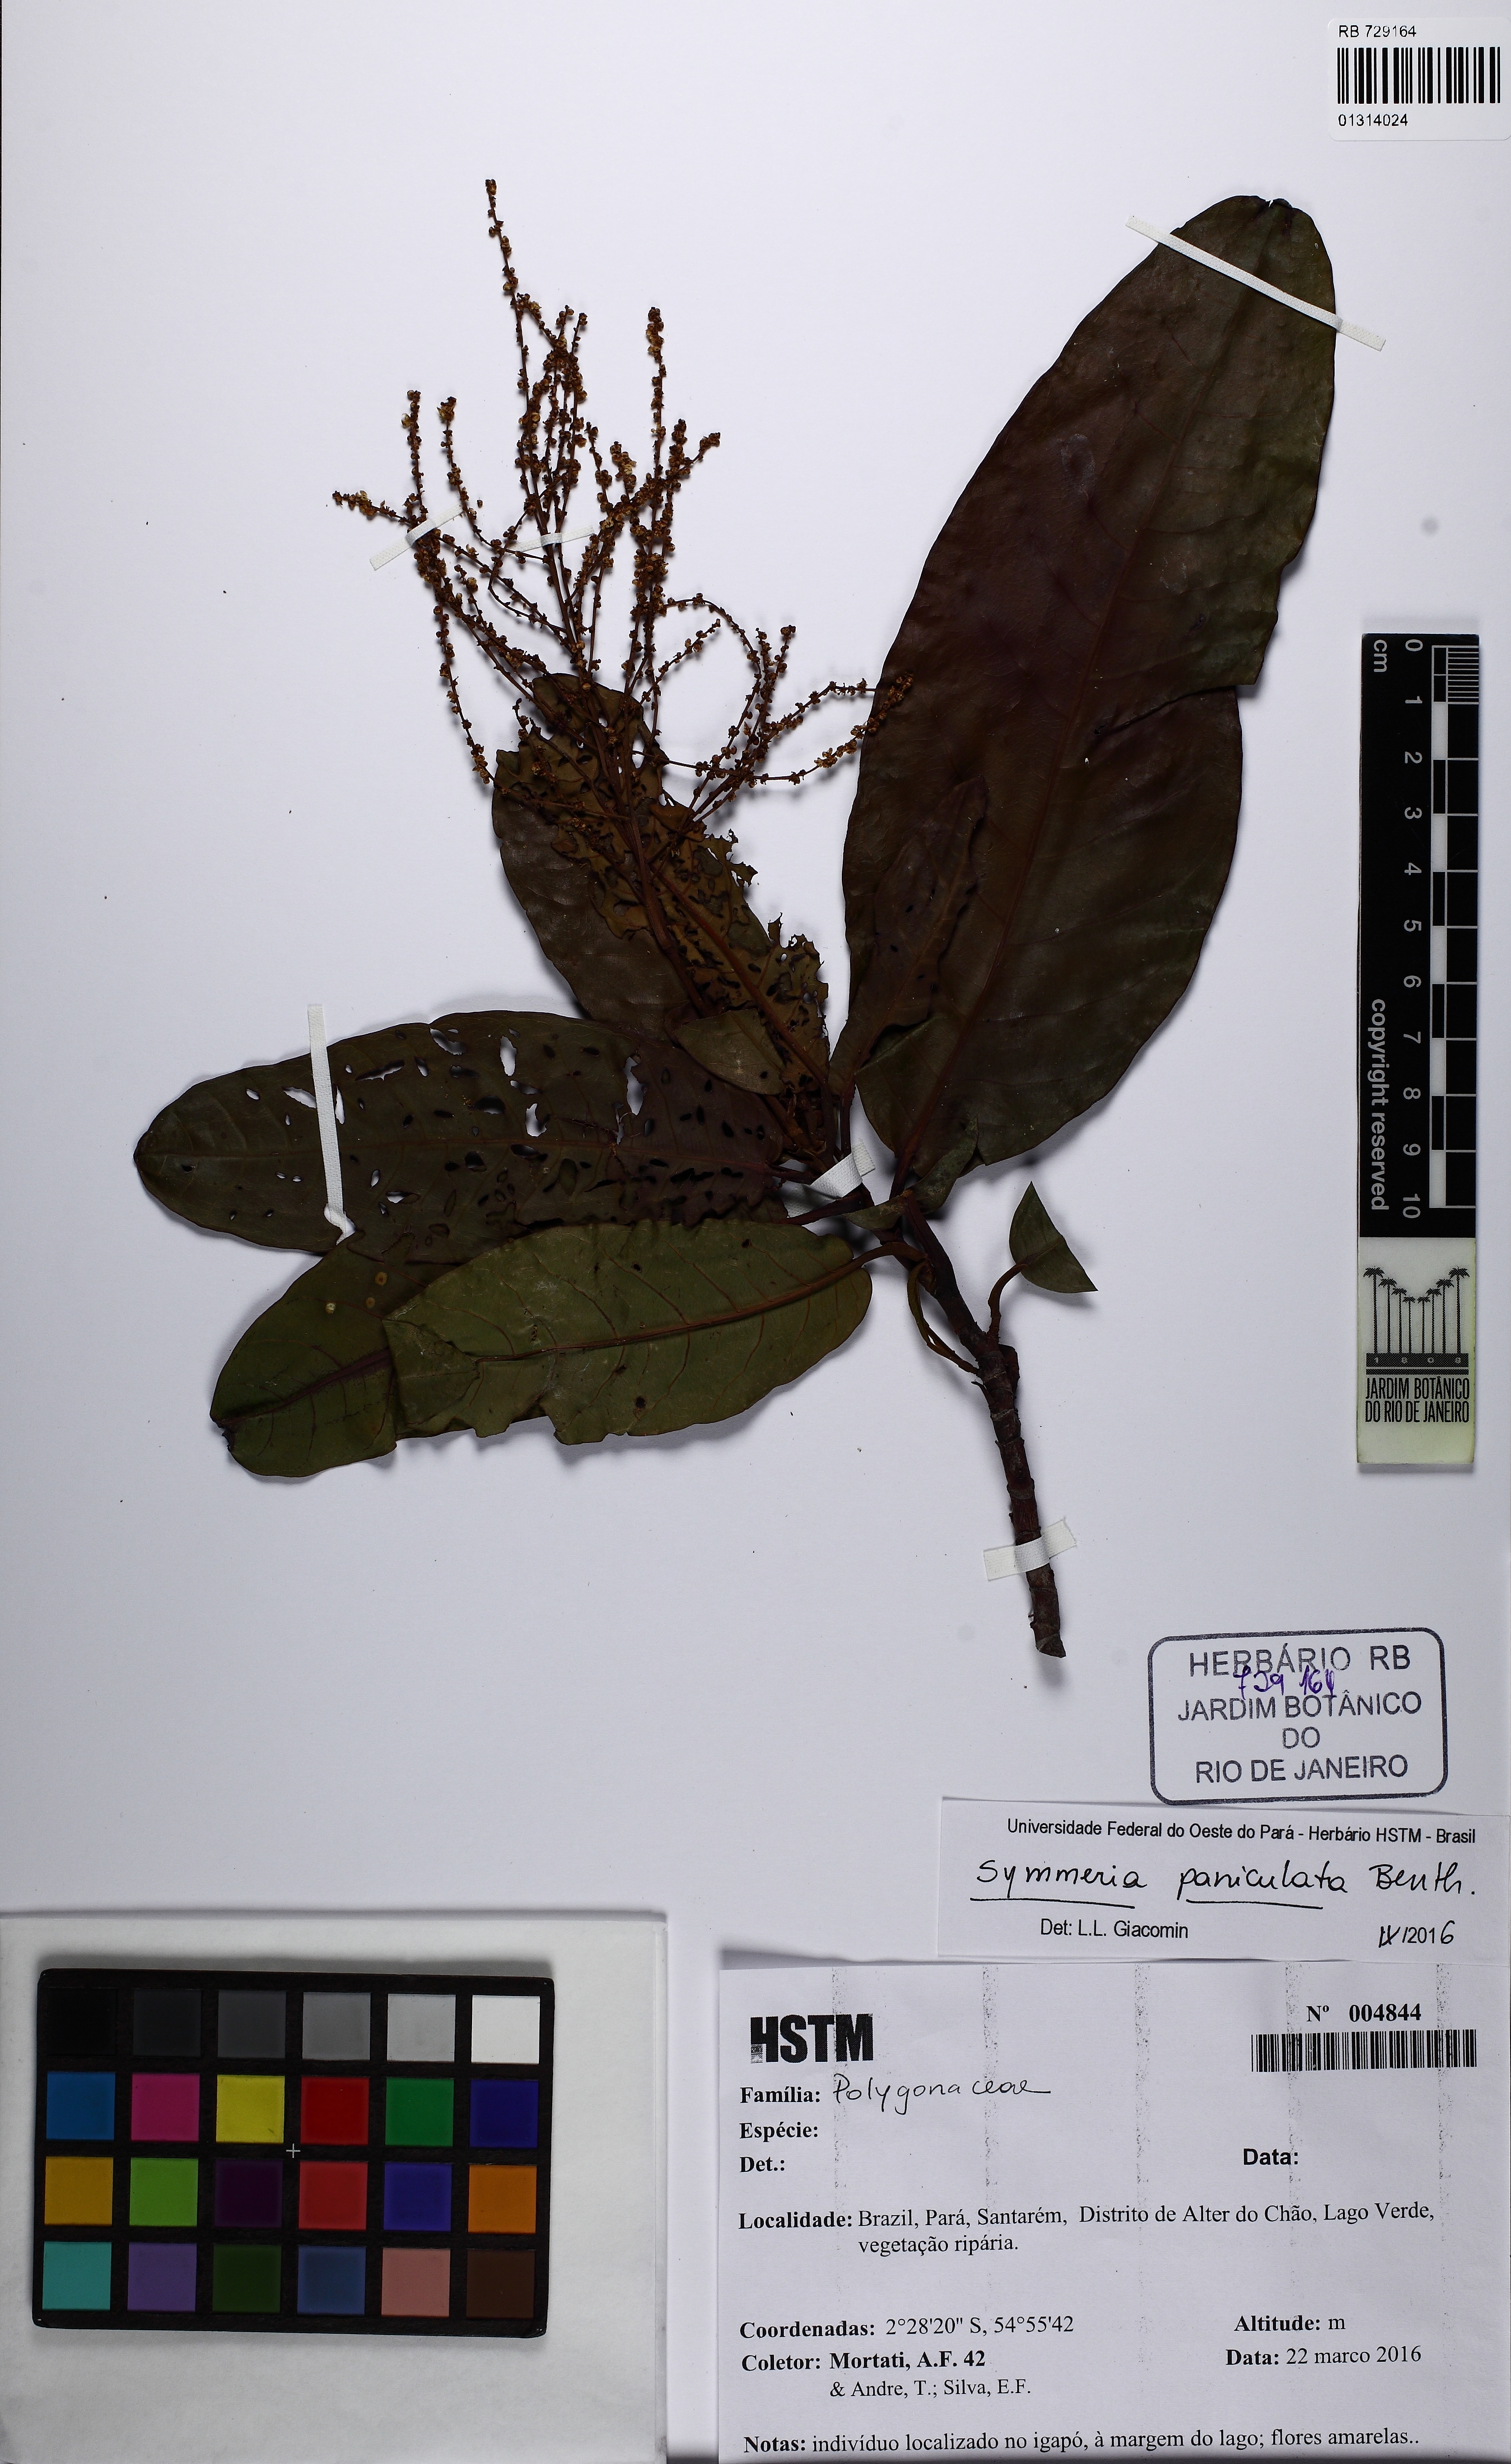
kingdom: Plantae
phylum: Tracheophyta
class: Magnoliopsida
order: Caryophyllales
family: Phytolaccaceae
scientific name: Phytolaccaceae
